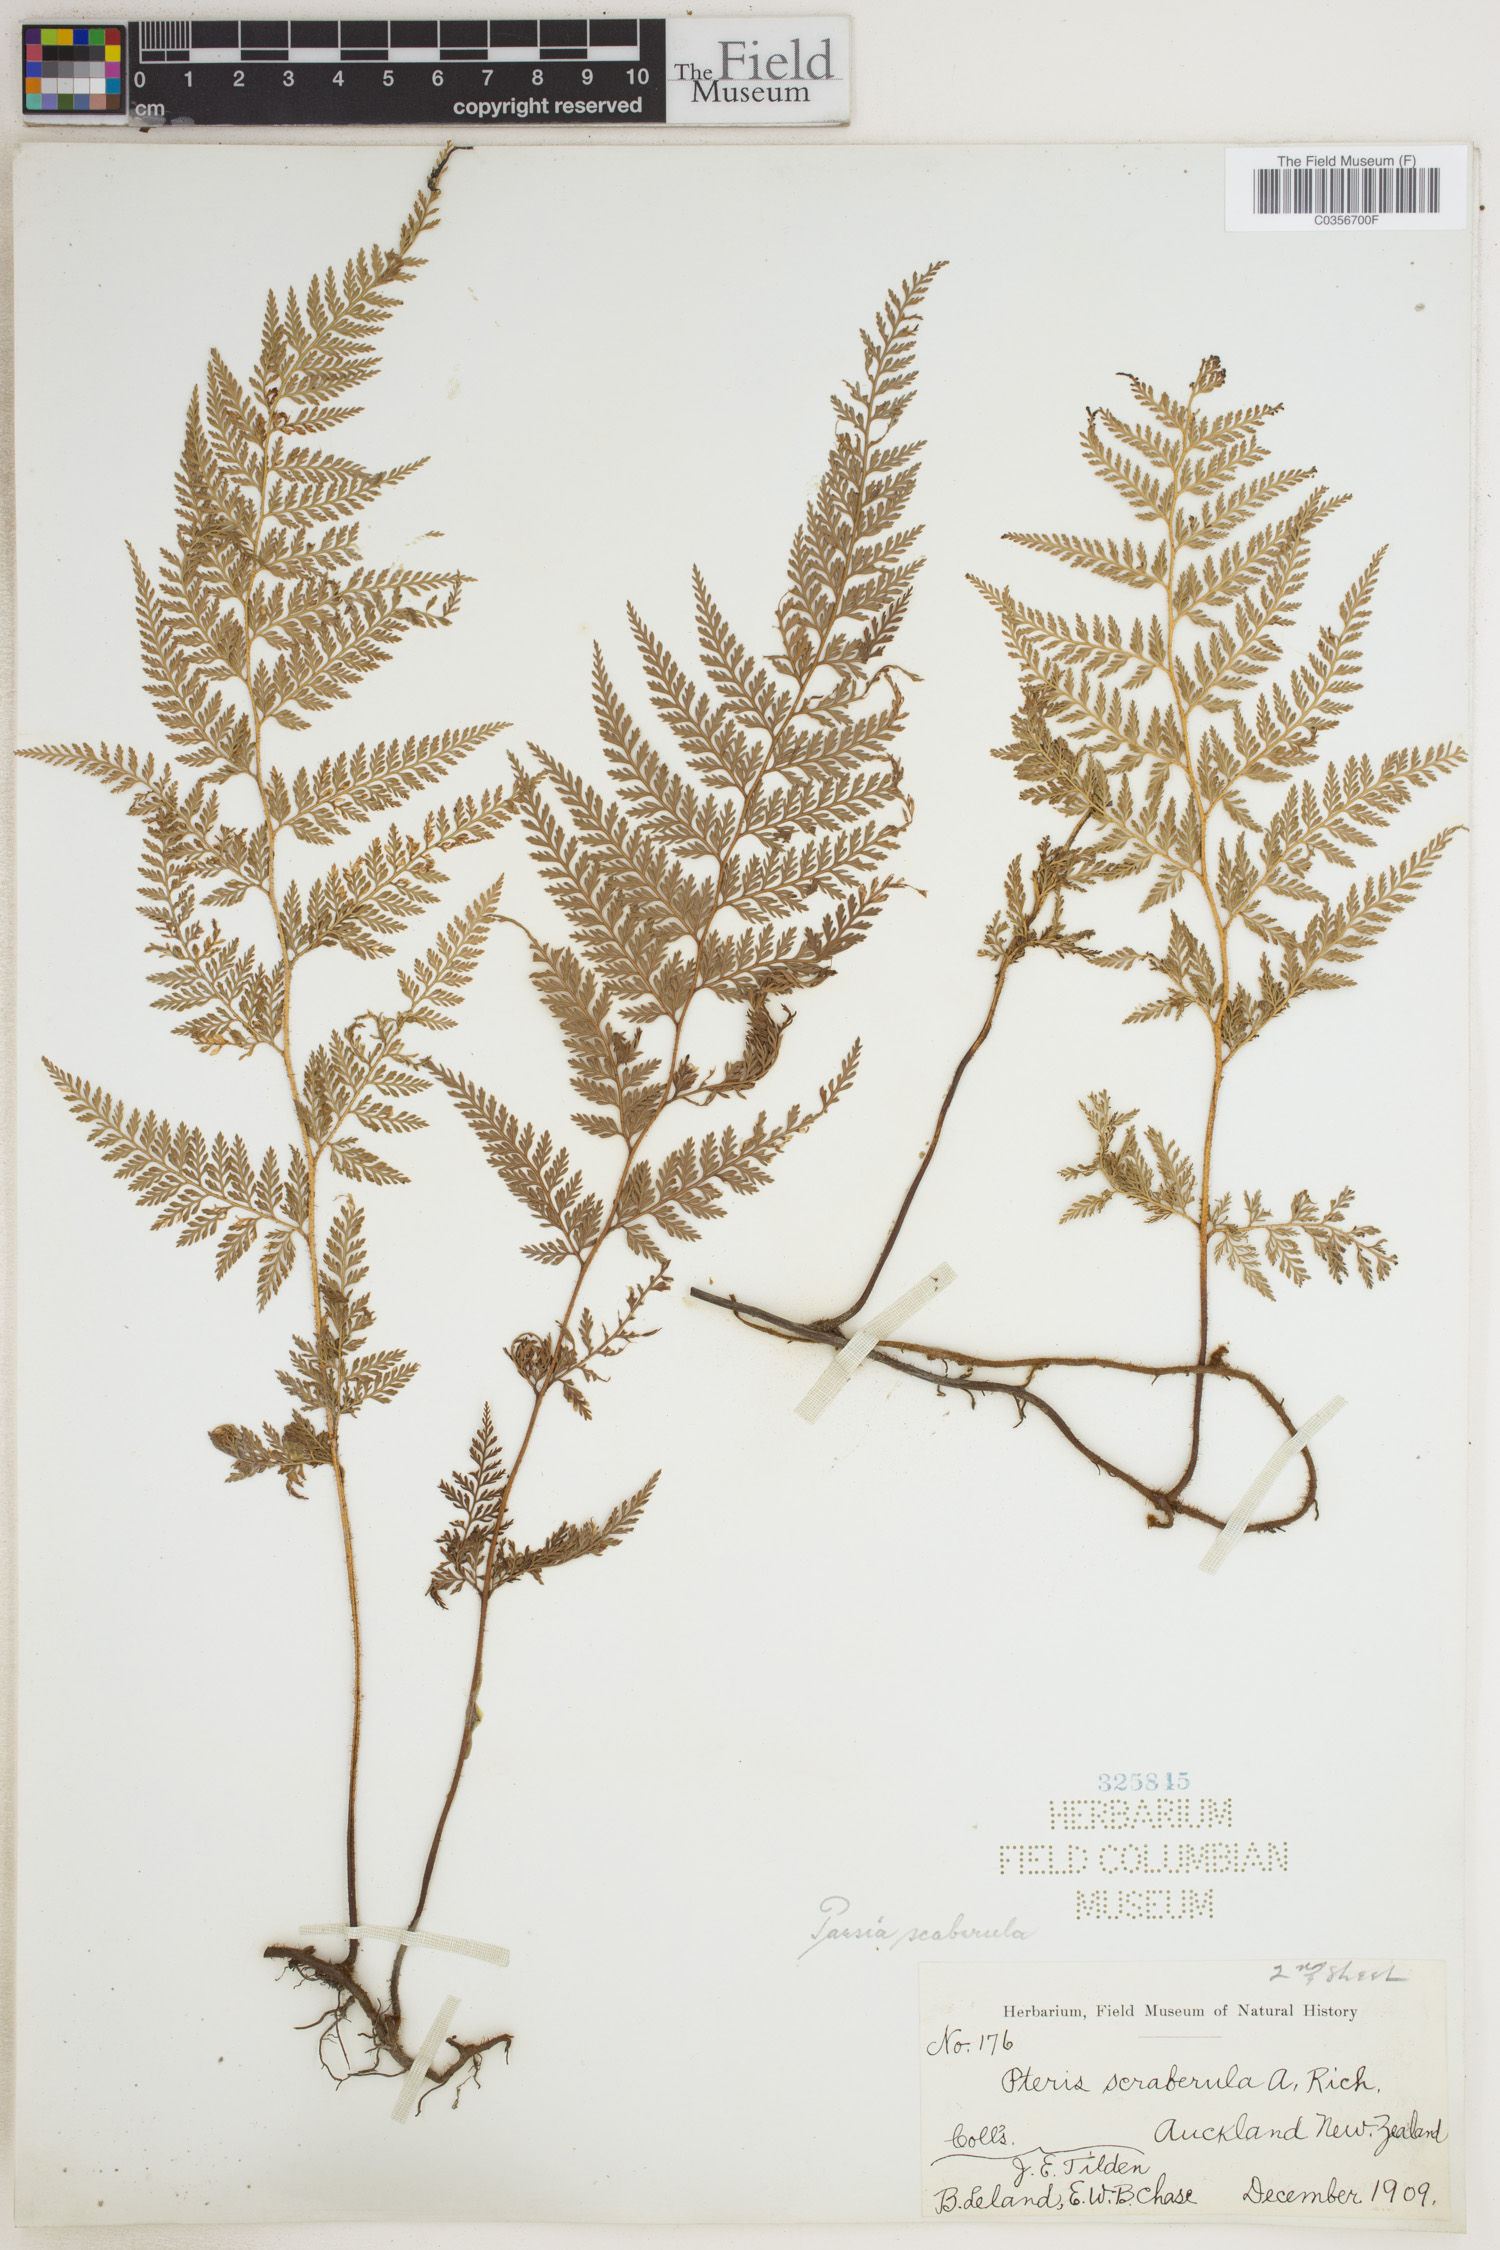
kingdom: Plantae
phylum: Tracheophyta
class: Polypodiopsida
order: Polypodiales
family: Dennstaedtiaceae
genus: Paesia
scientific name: Paesia scaberula
